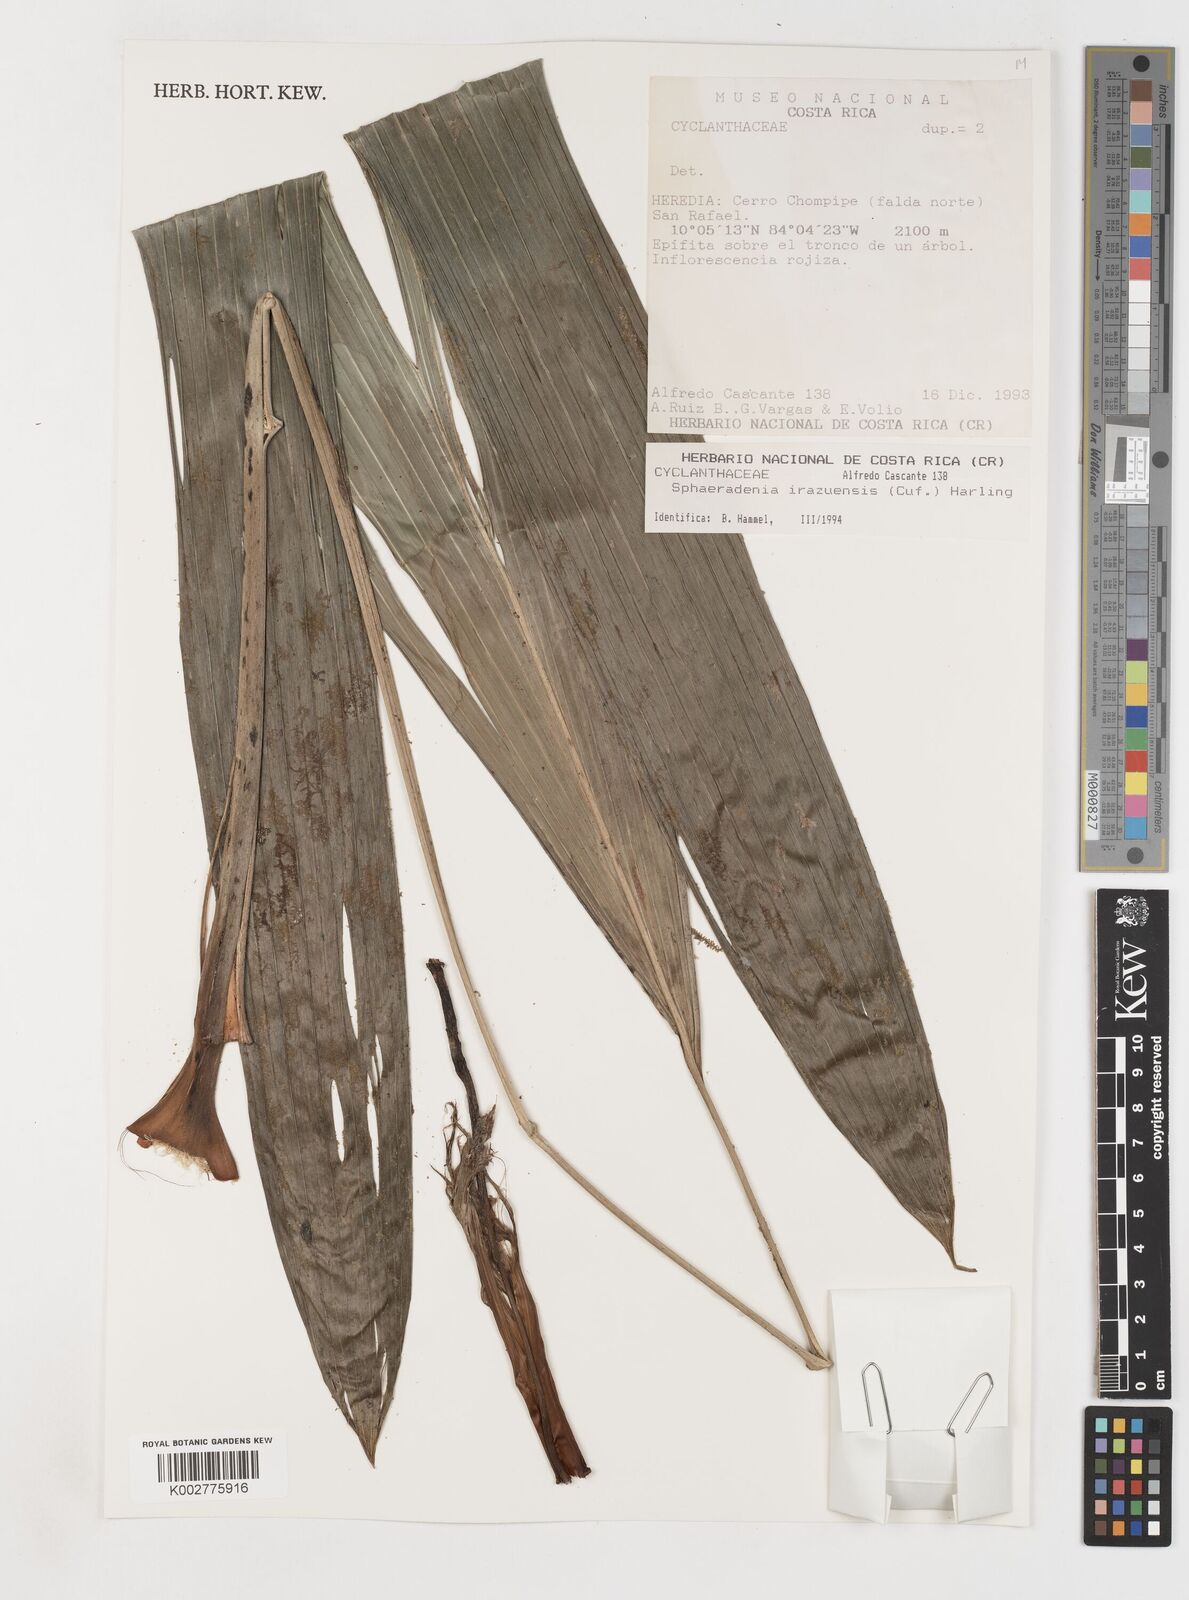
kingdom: Plantae
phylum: Tracheophyta
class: Liliopsida
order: Pandanales
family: Cyclanthaceae
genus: Sphaeradenia
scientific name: Sphaeradenia laucheana
